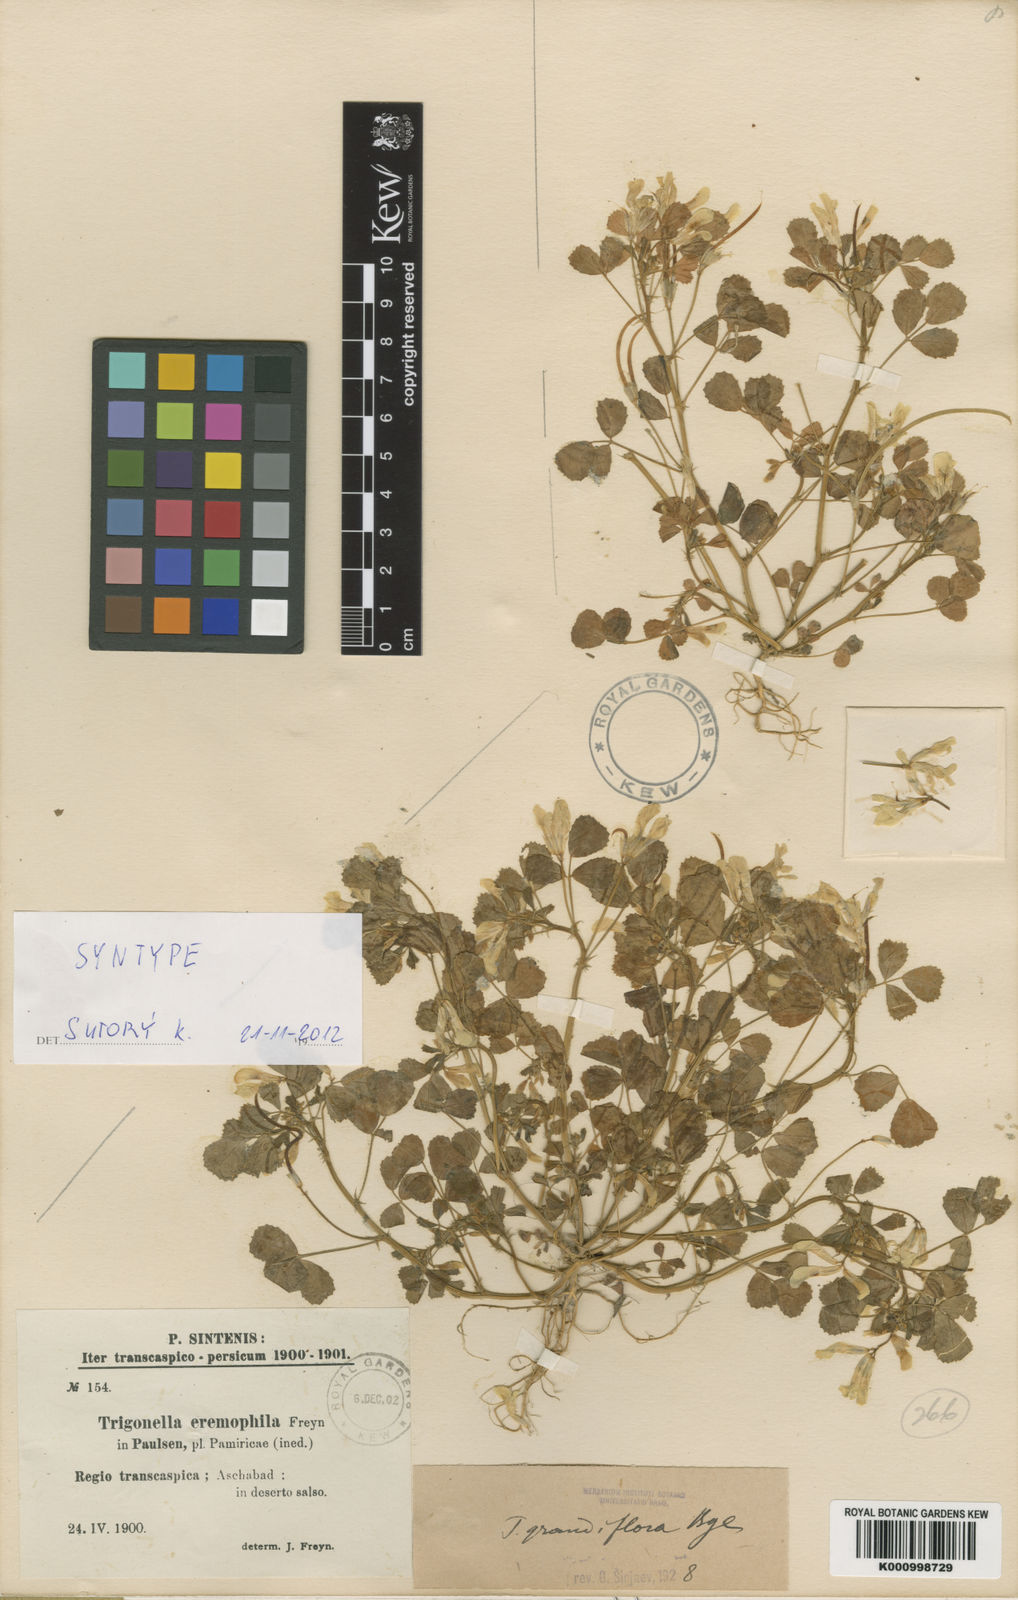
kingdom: Plantae
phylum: Tracheophyta
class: Magnoliopsida
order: Fabales
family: Fabaceae
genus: Trigonella
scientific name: Trigonella grandiflora
